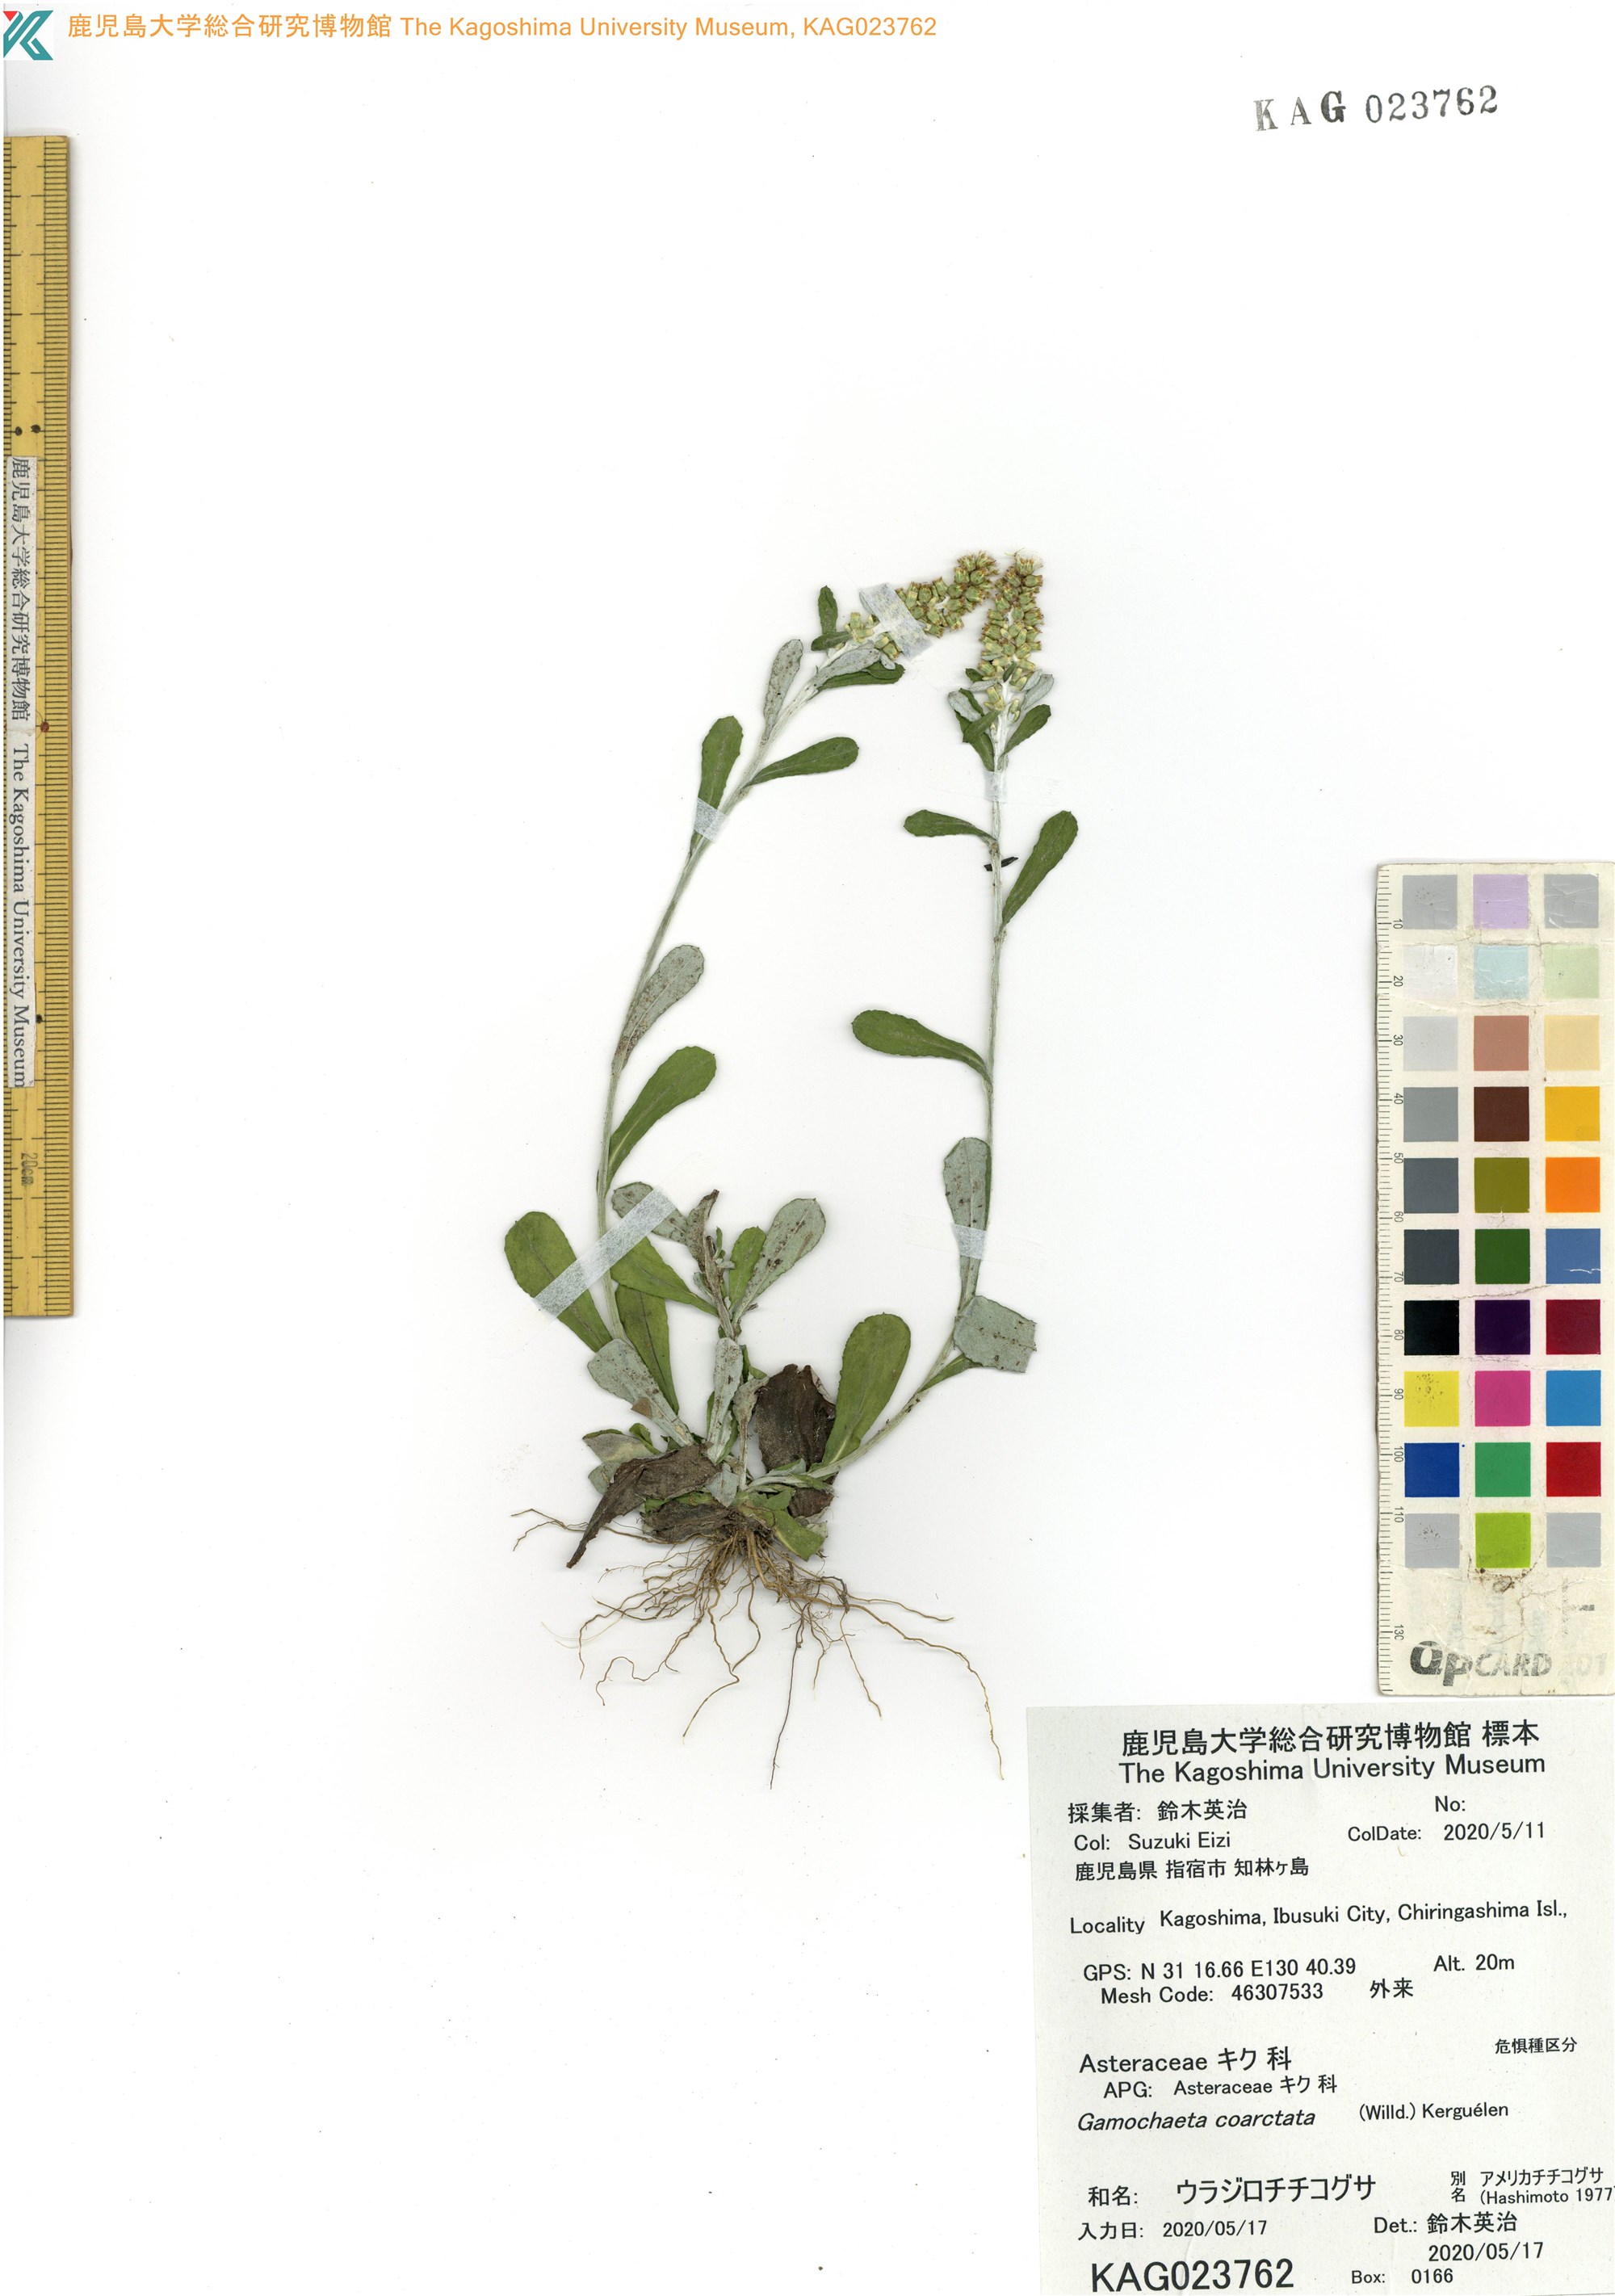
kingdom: Plantae
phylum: Tracheophyta
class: Magnoliopsida
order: Asterales
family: Asteraceae
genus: Gamochaeta
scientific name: Gamochaeta americana
